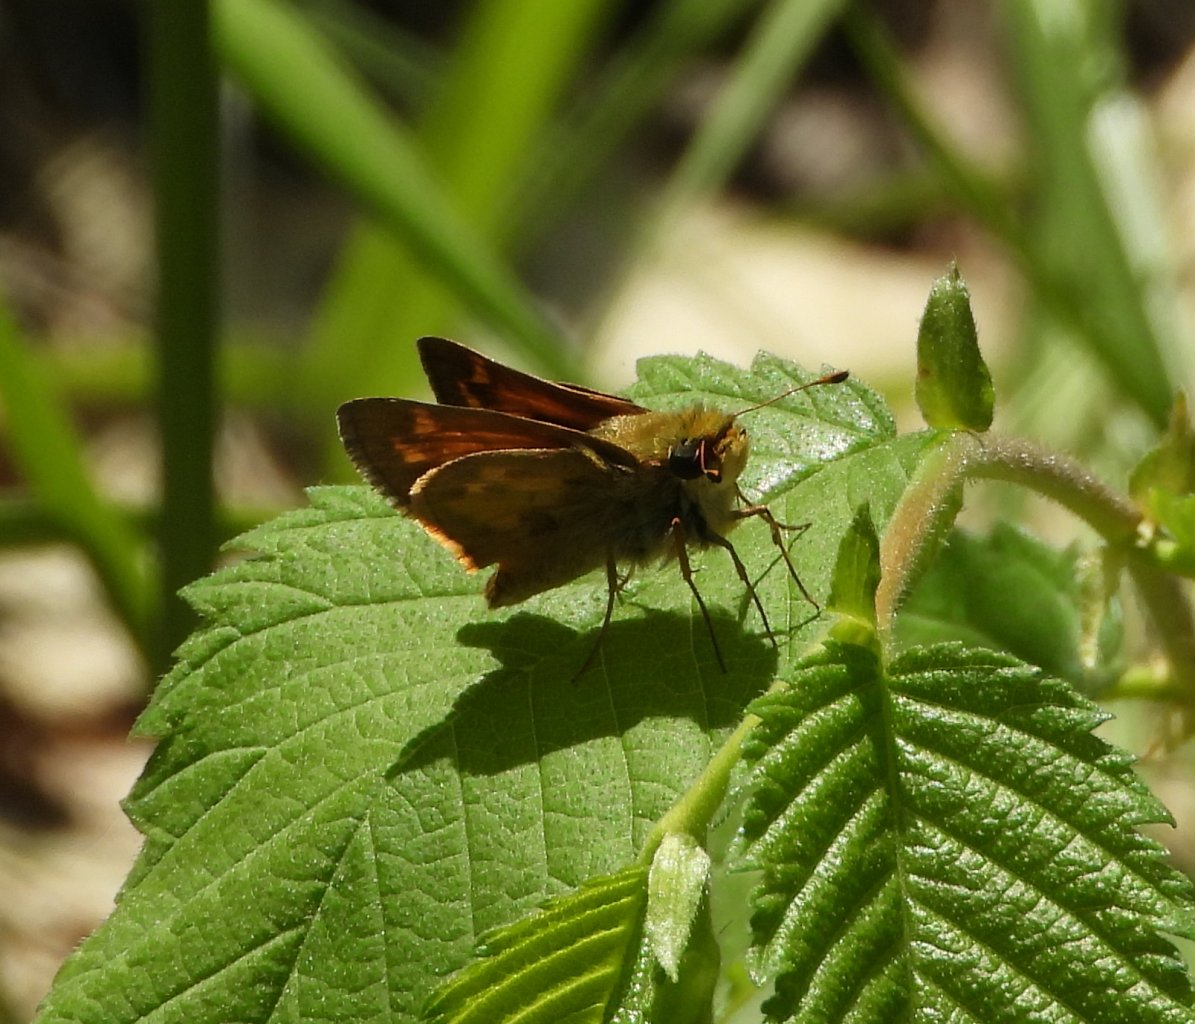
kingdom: Animalia
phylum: Arthropoda
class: Insecta
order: Lepidoptera
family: Hesperiidae
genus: Polites
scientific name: Polites coras
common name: Peck's Skipper
